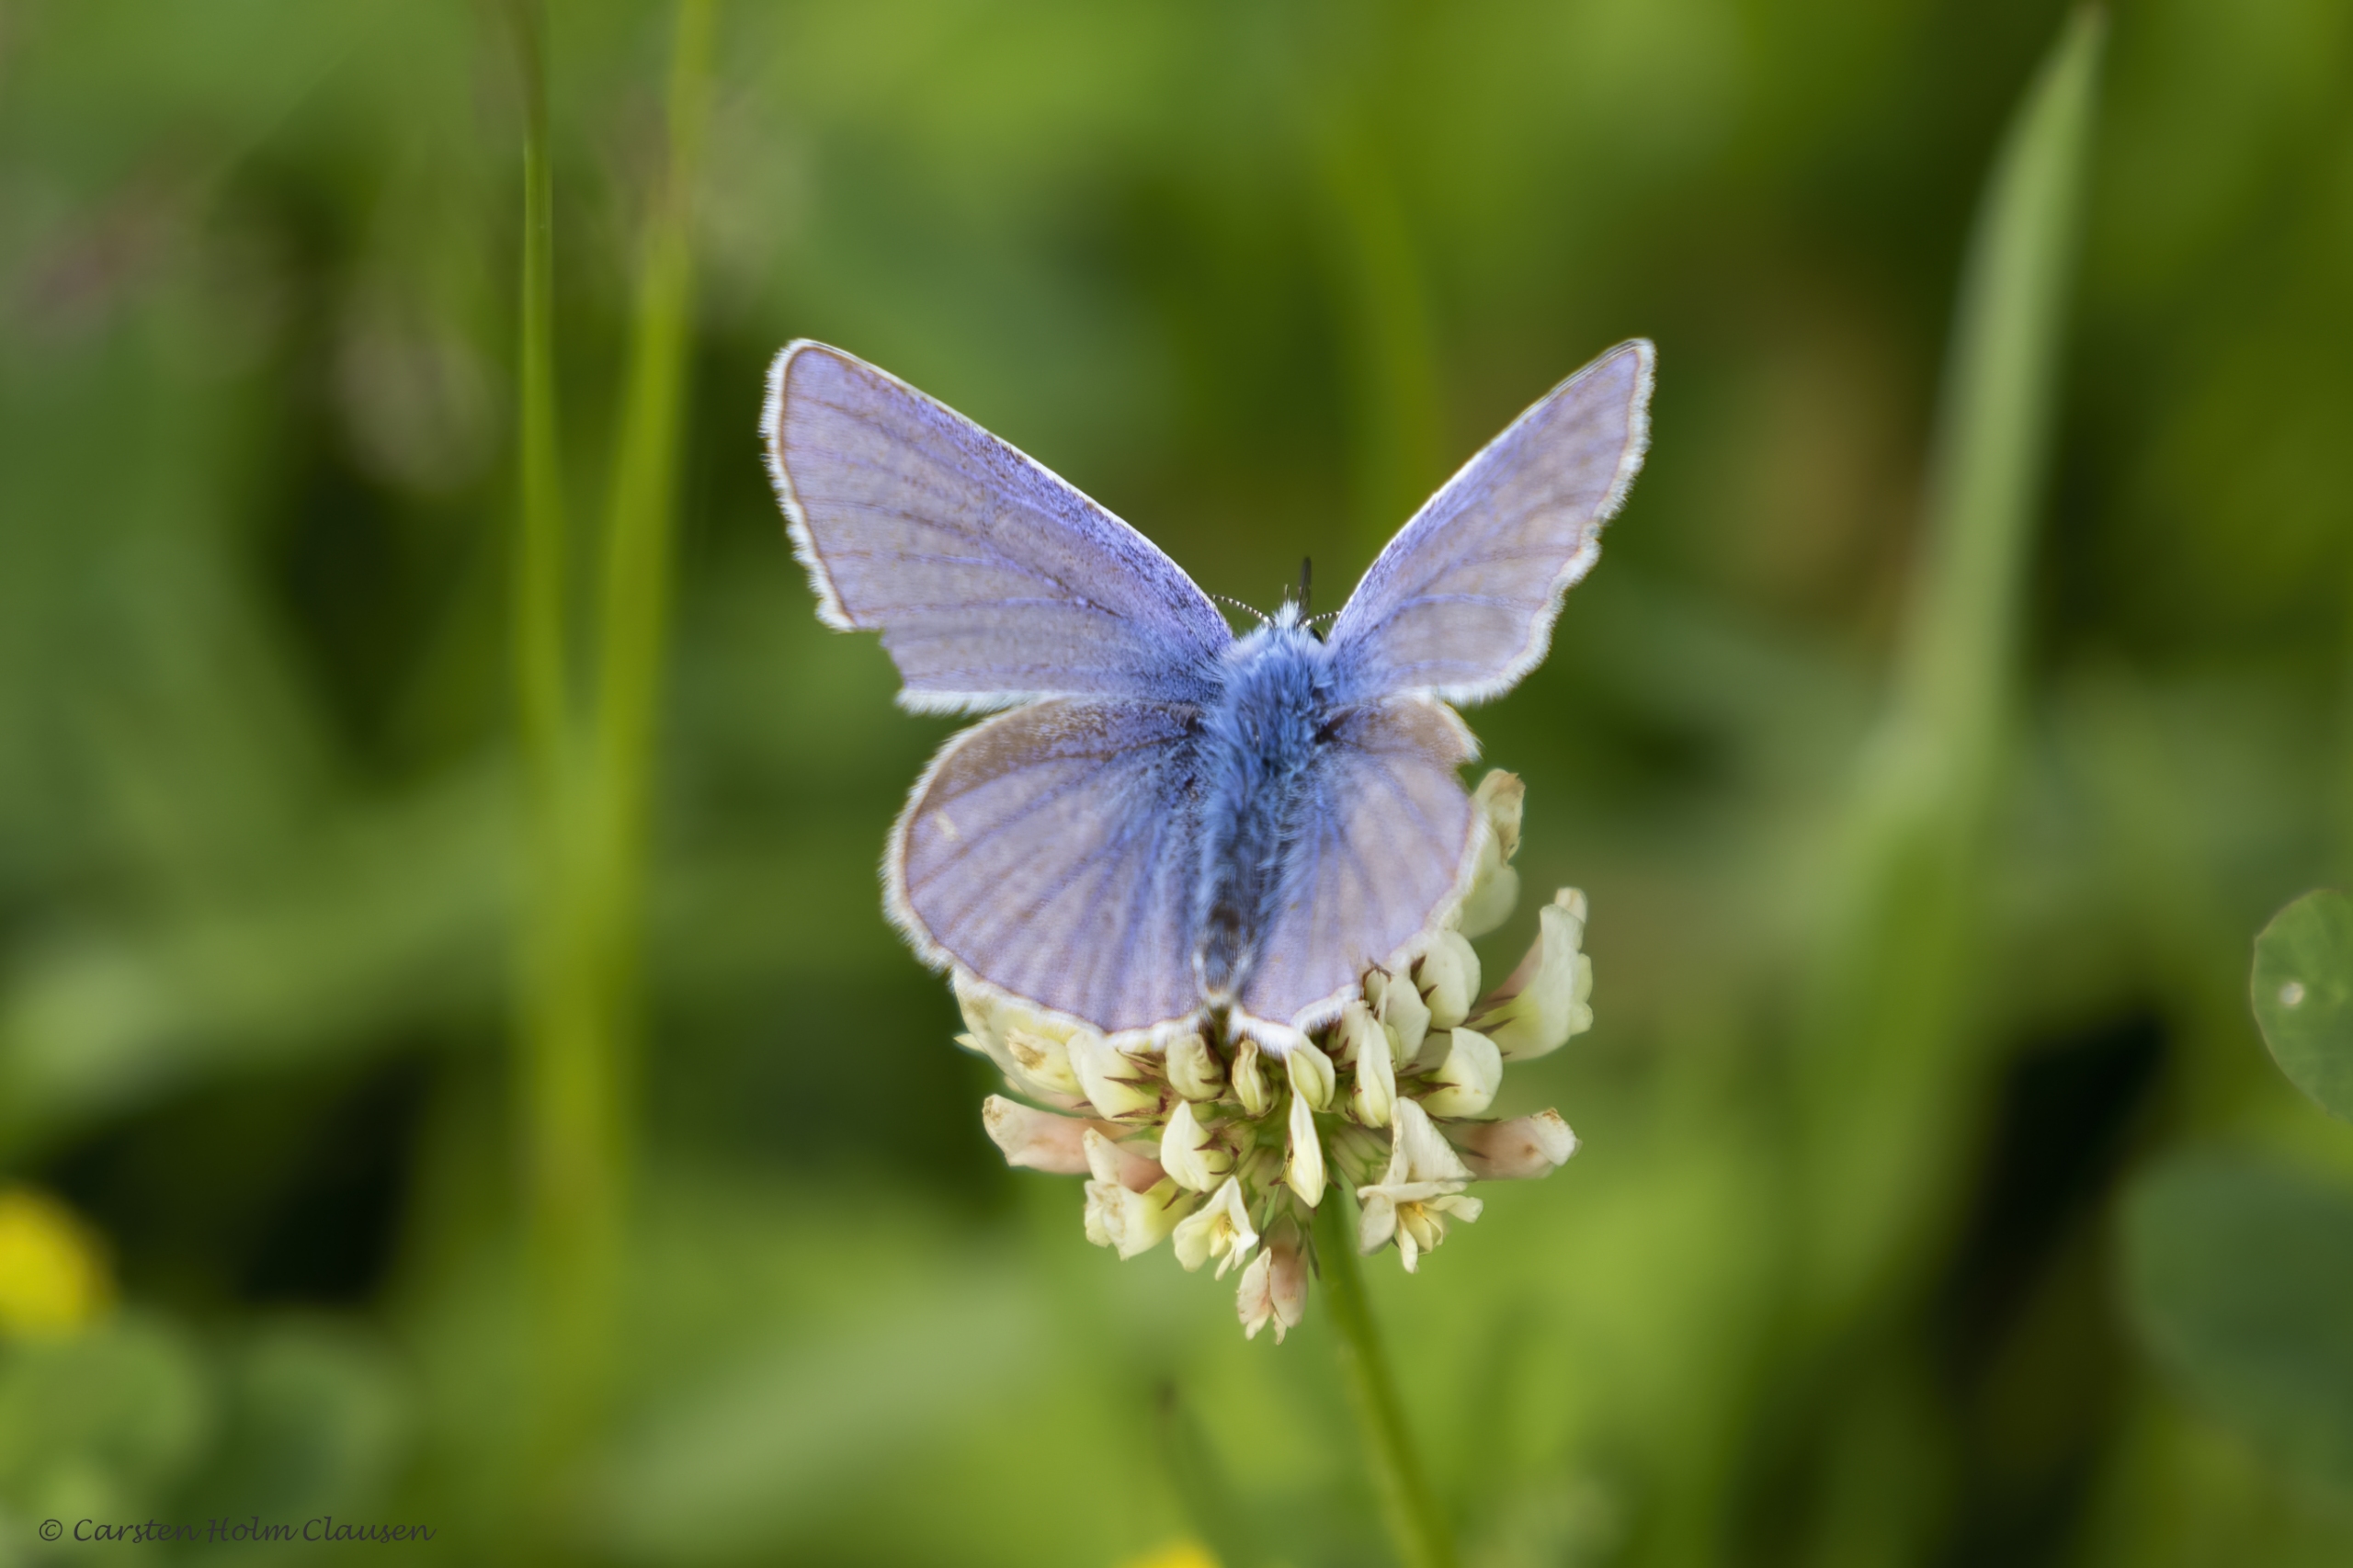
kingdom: Animalia
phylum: Arthropoda
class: Insecta
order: Lepidoptera
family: Lycaenidae
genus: Polyommatus
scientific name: Polyommatus icarus
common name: Almindelig blåfugl
